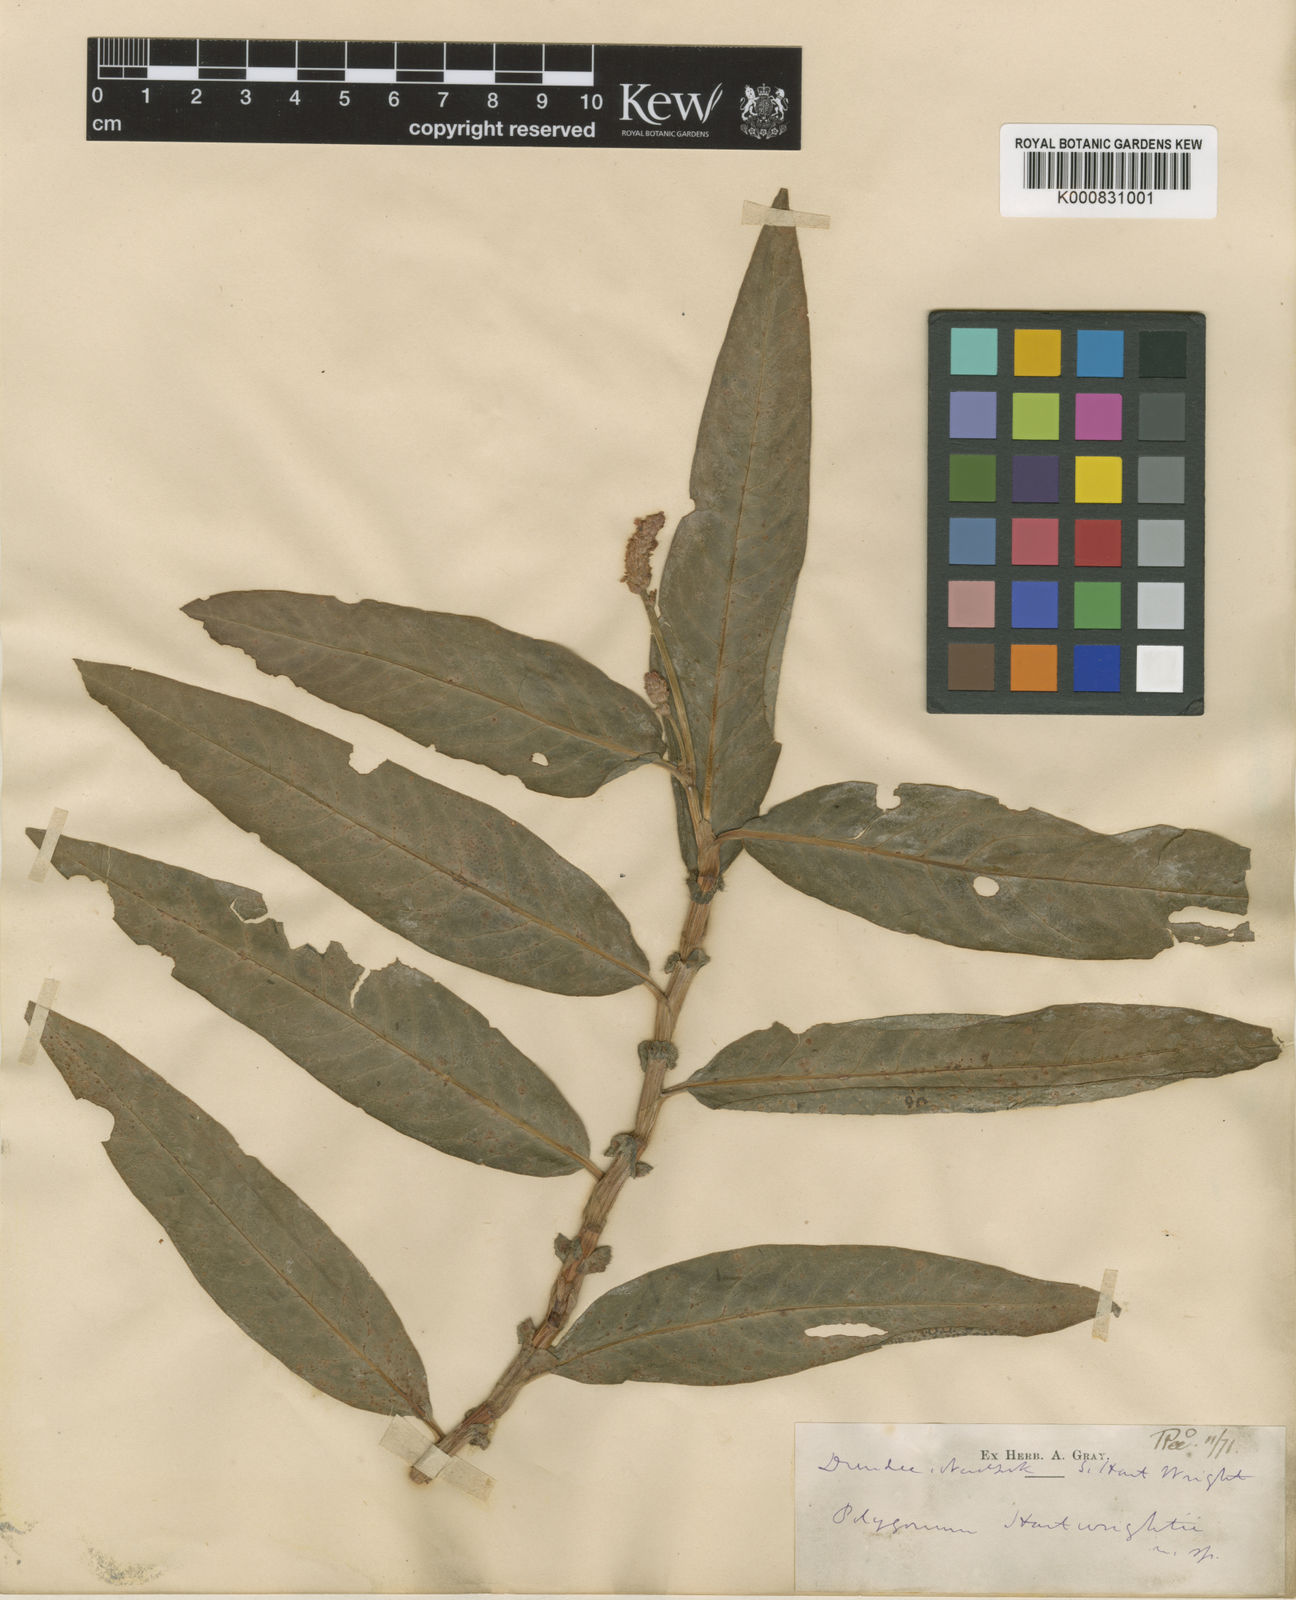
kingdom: Plantae
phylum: Tracheophyta
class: Magnoliopsida
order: Caryophyllales
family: Polygonaceae
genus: Persicaria
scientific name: Persicaria amphibia
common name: Amphibious bistort
